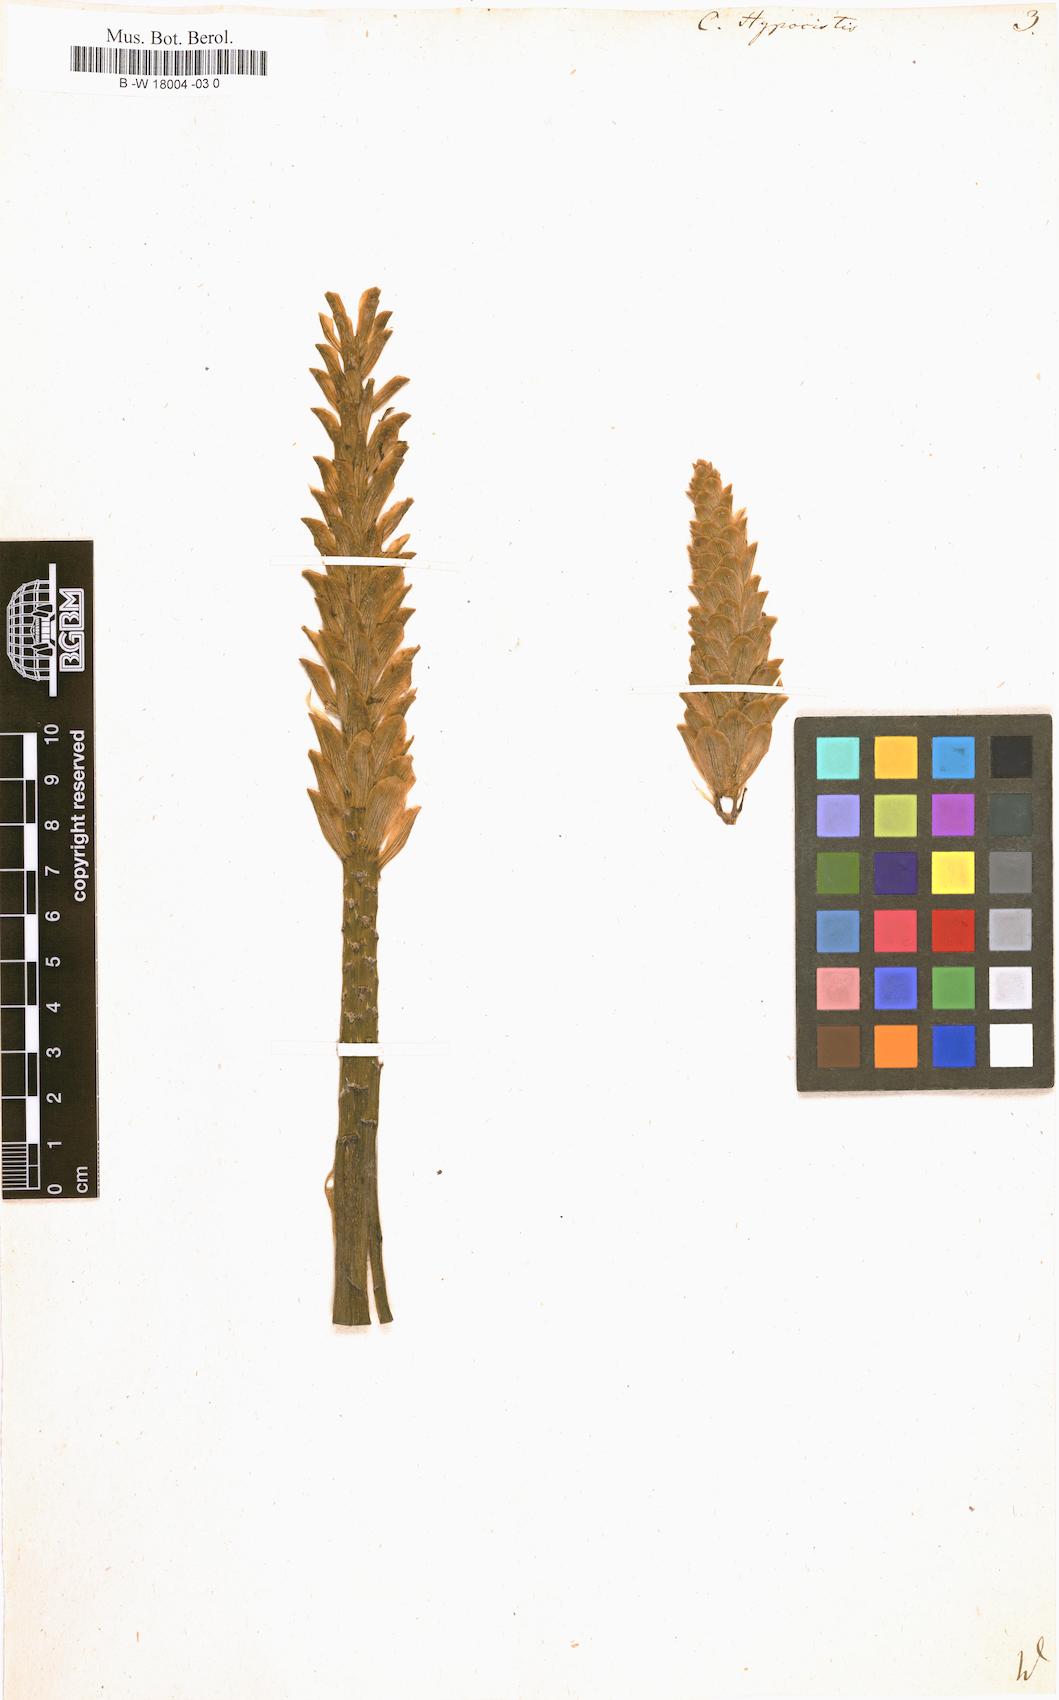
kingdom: Plantae
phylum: Tracheophyta
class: Magnoliopsida
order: Malvales
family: Cytinaceae
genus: Cytinus
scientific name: Cytinus hypocistis
